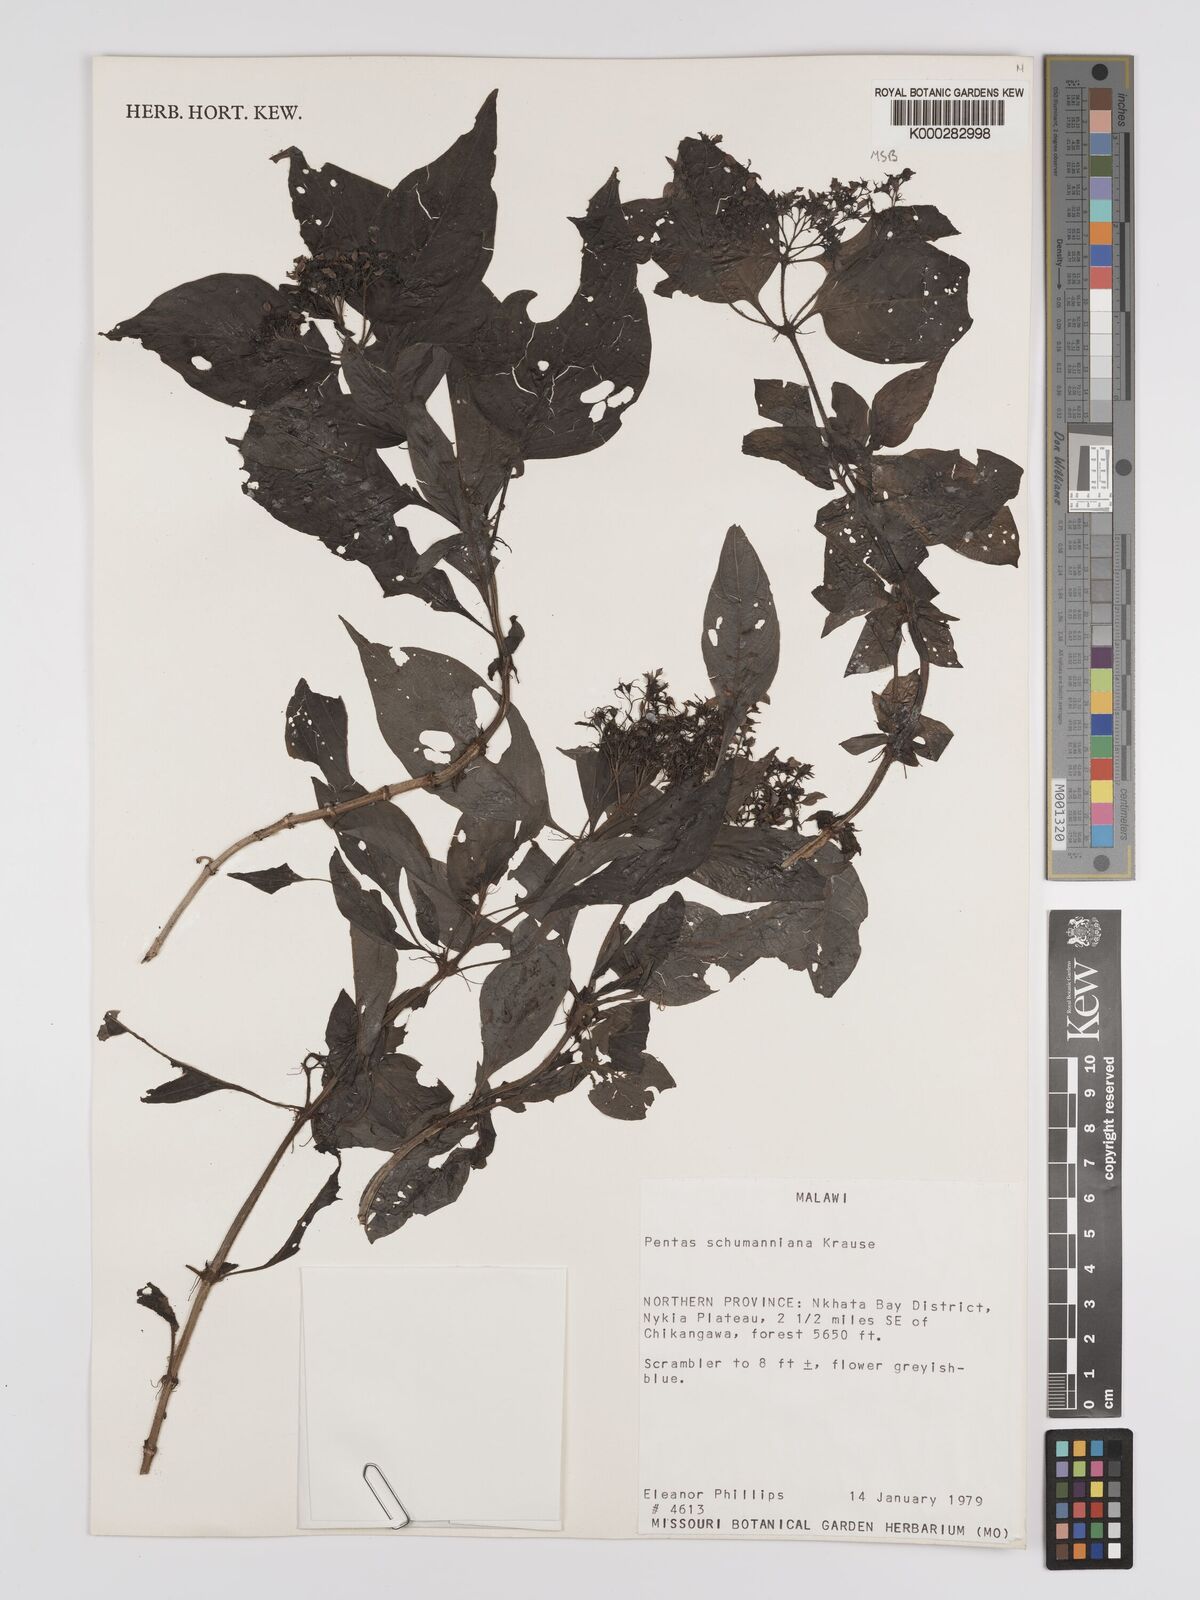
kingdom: Plantae
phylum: Tracheophyta
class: Magnoliopsida
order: Gentianales
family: Rubiaceae
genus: Phyllopentas
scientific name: Phyllopentas schumanniana
